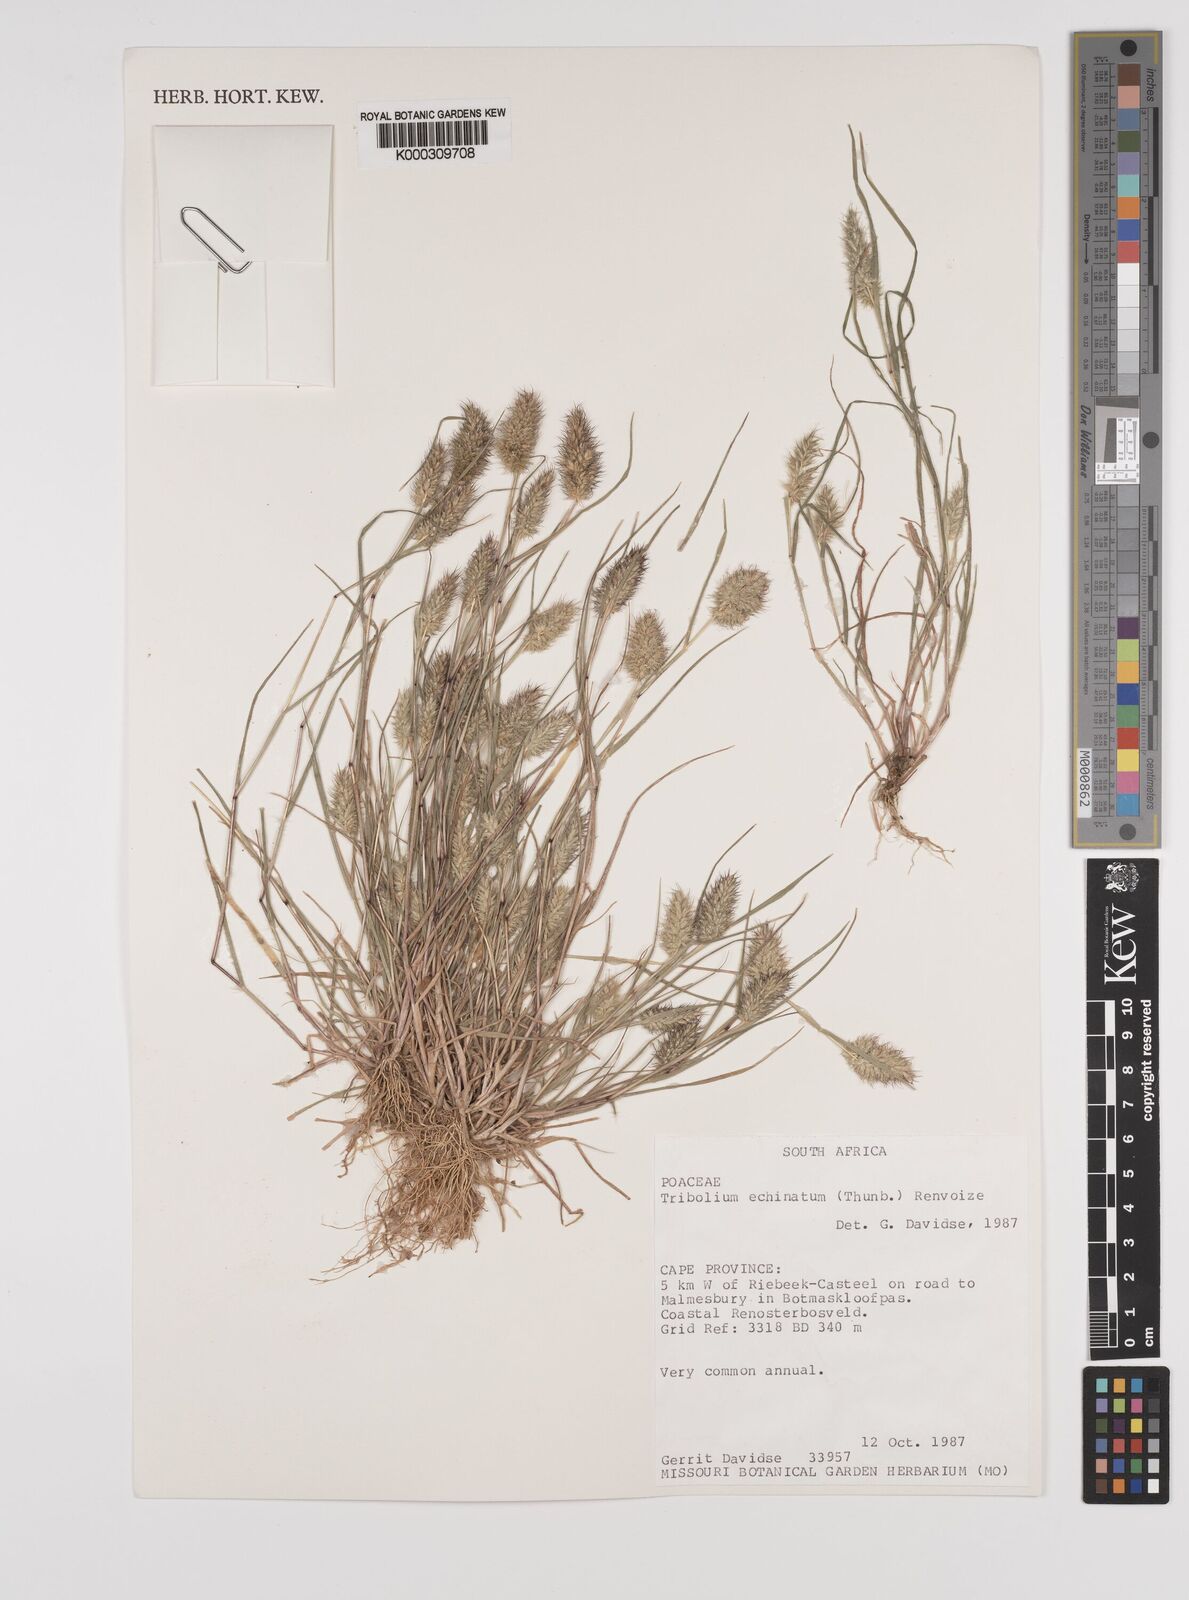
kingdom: Plantae
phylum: Tracheophyta
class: Liliopsida
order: Poales
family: Poaceae
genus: Tribolium
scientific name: Tribolium echinatum
